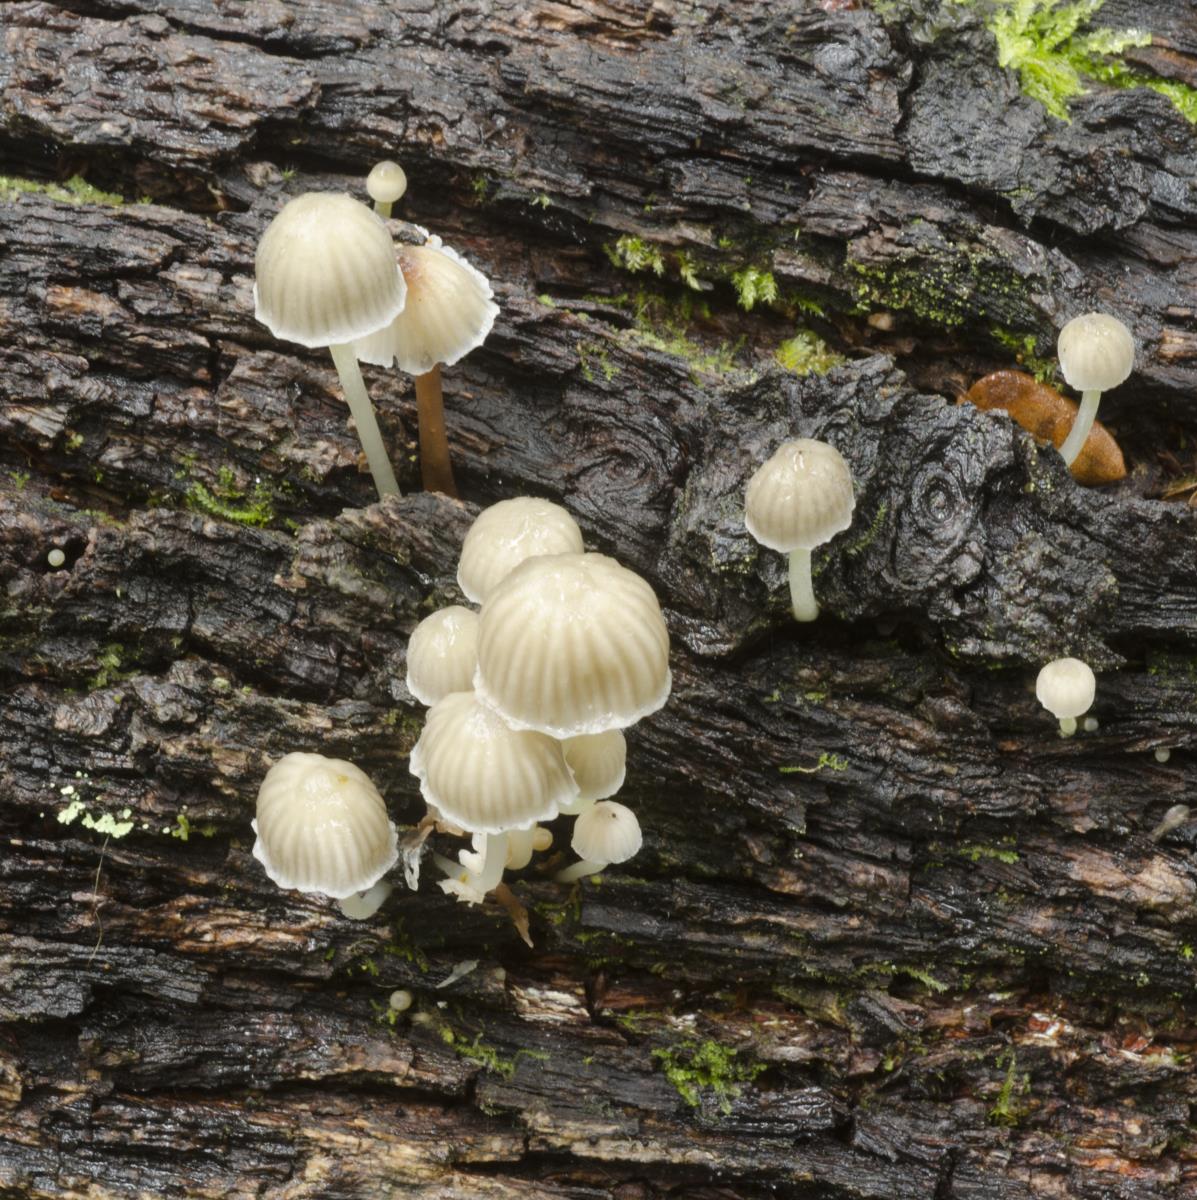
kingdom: Fungi
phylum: Basidiomycota
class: Agaricomycetes
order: Agaricales
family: Mycenaceae
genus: Mycena
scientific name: Mycena subviscosa
